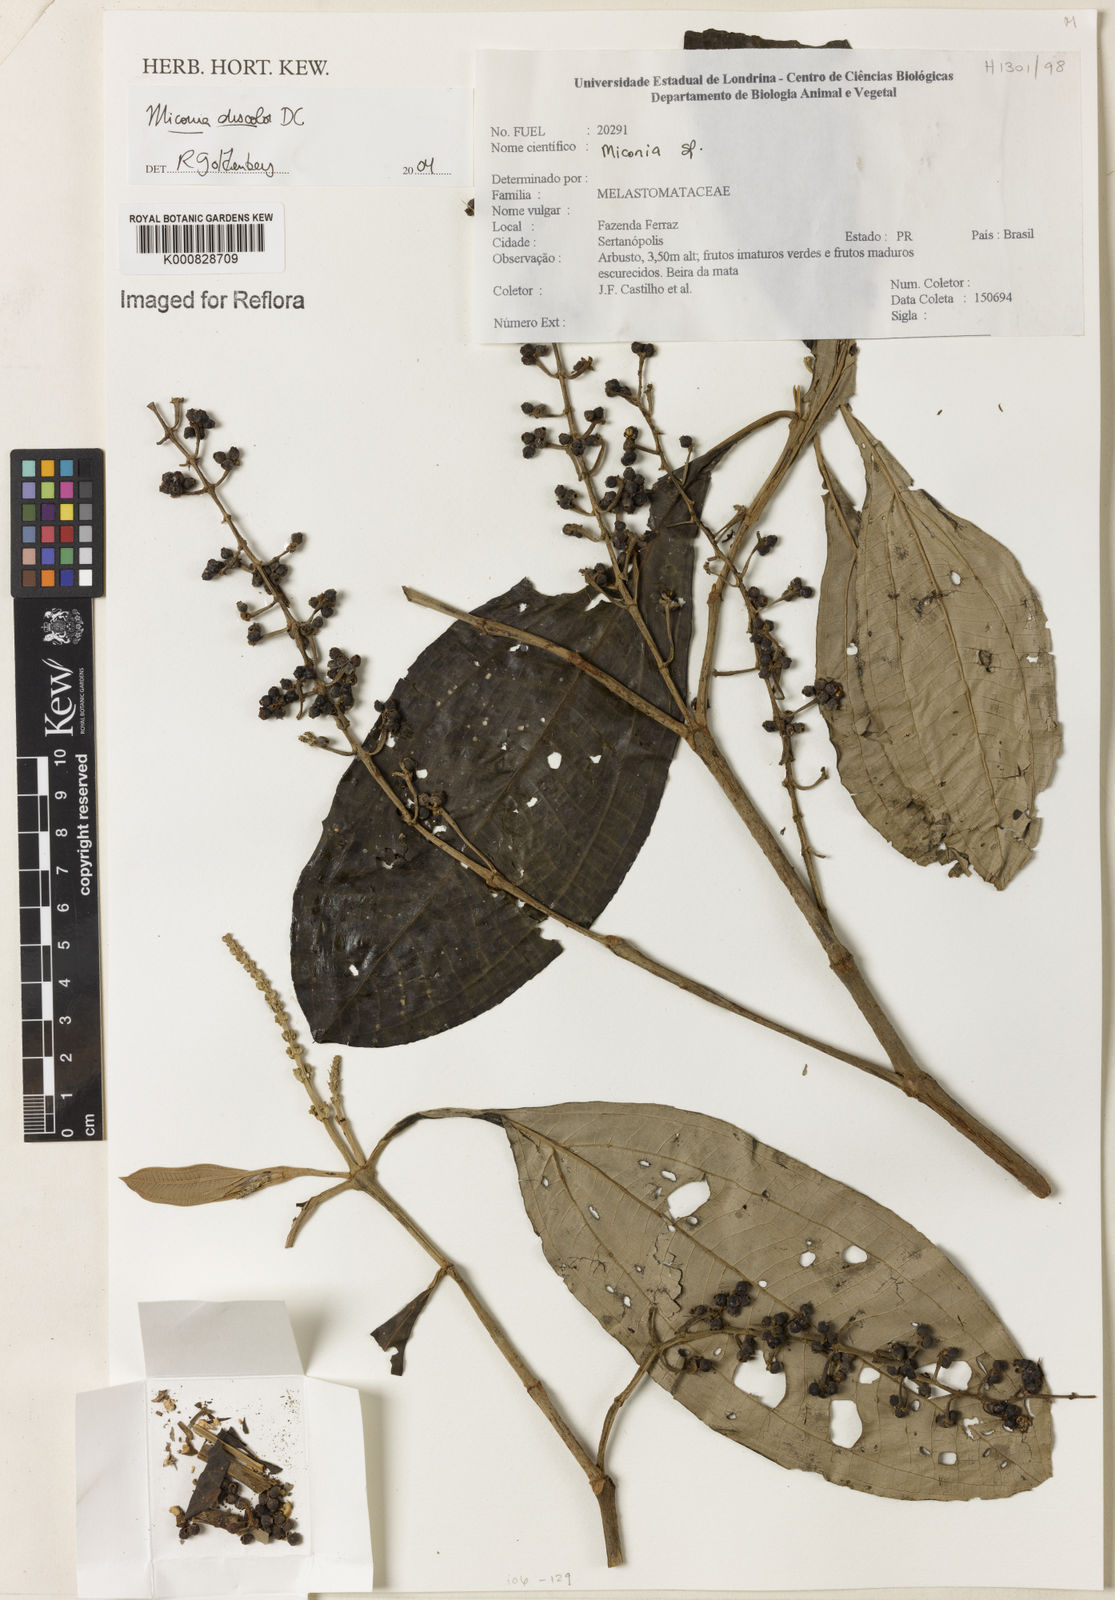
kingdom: Plantae
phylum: Tracheophyta
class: Magnoliopsida
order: Myrtales
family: Melastomataceae
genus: Miconia
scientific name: Miconia discolor
